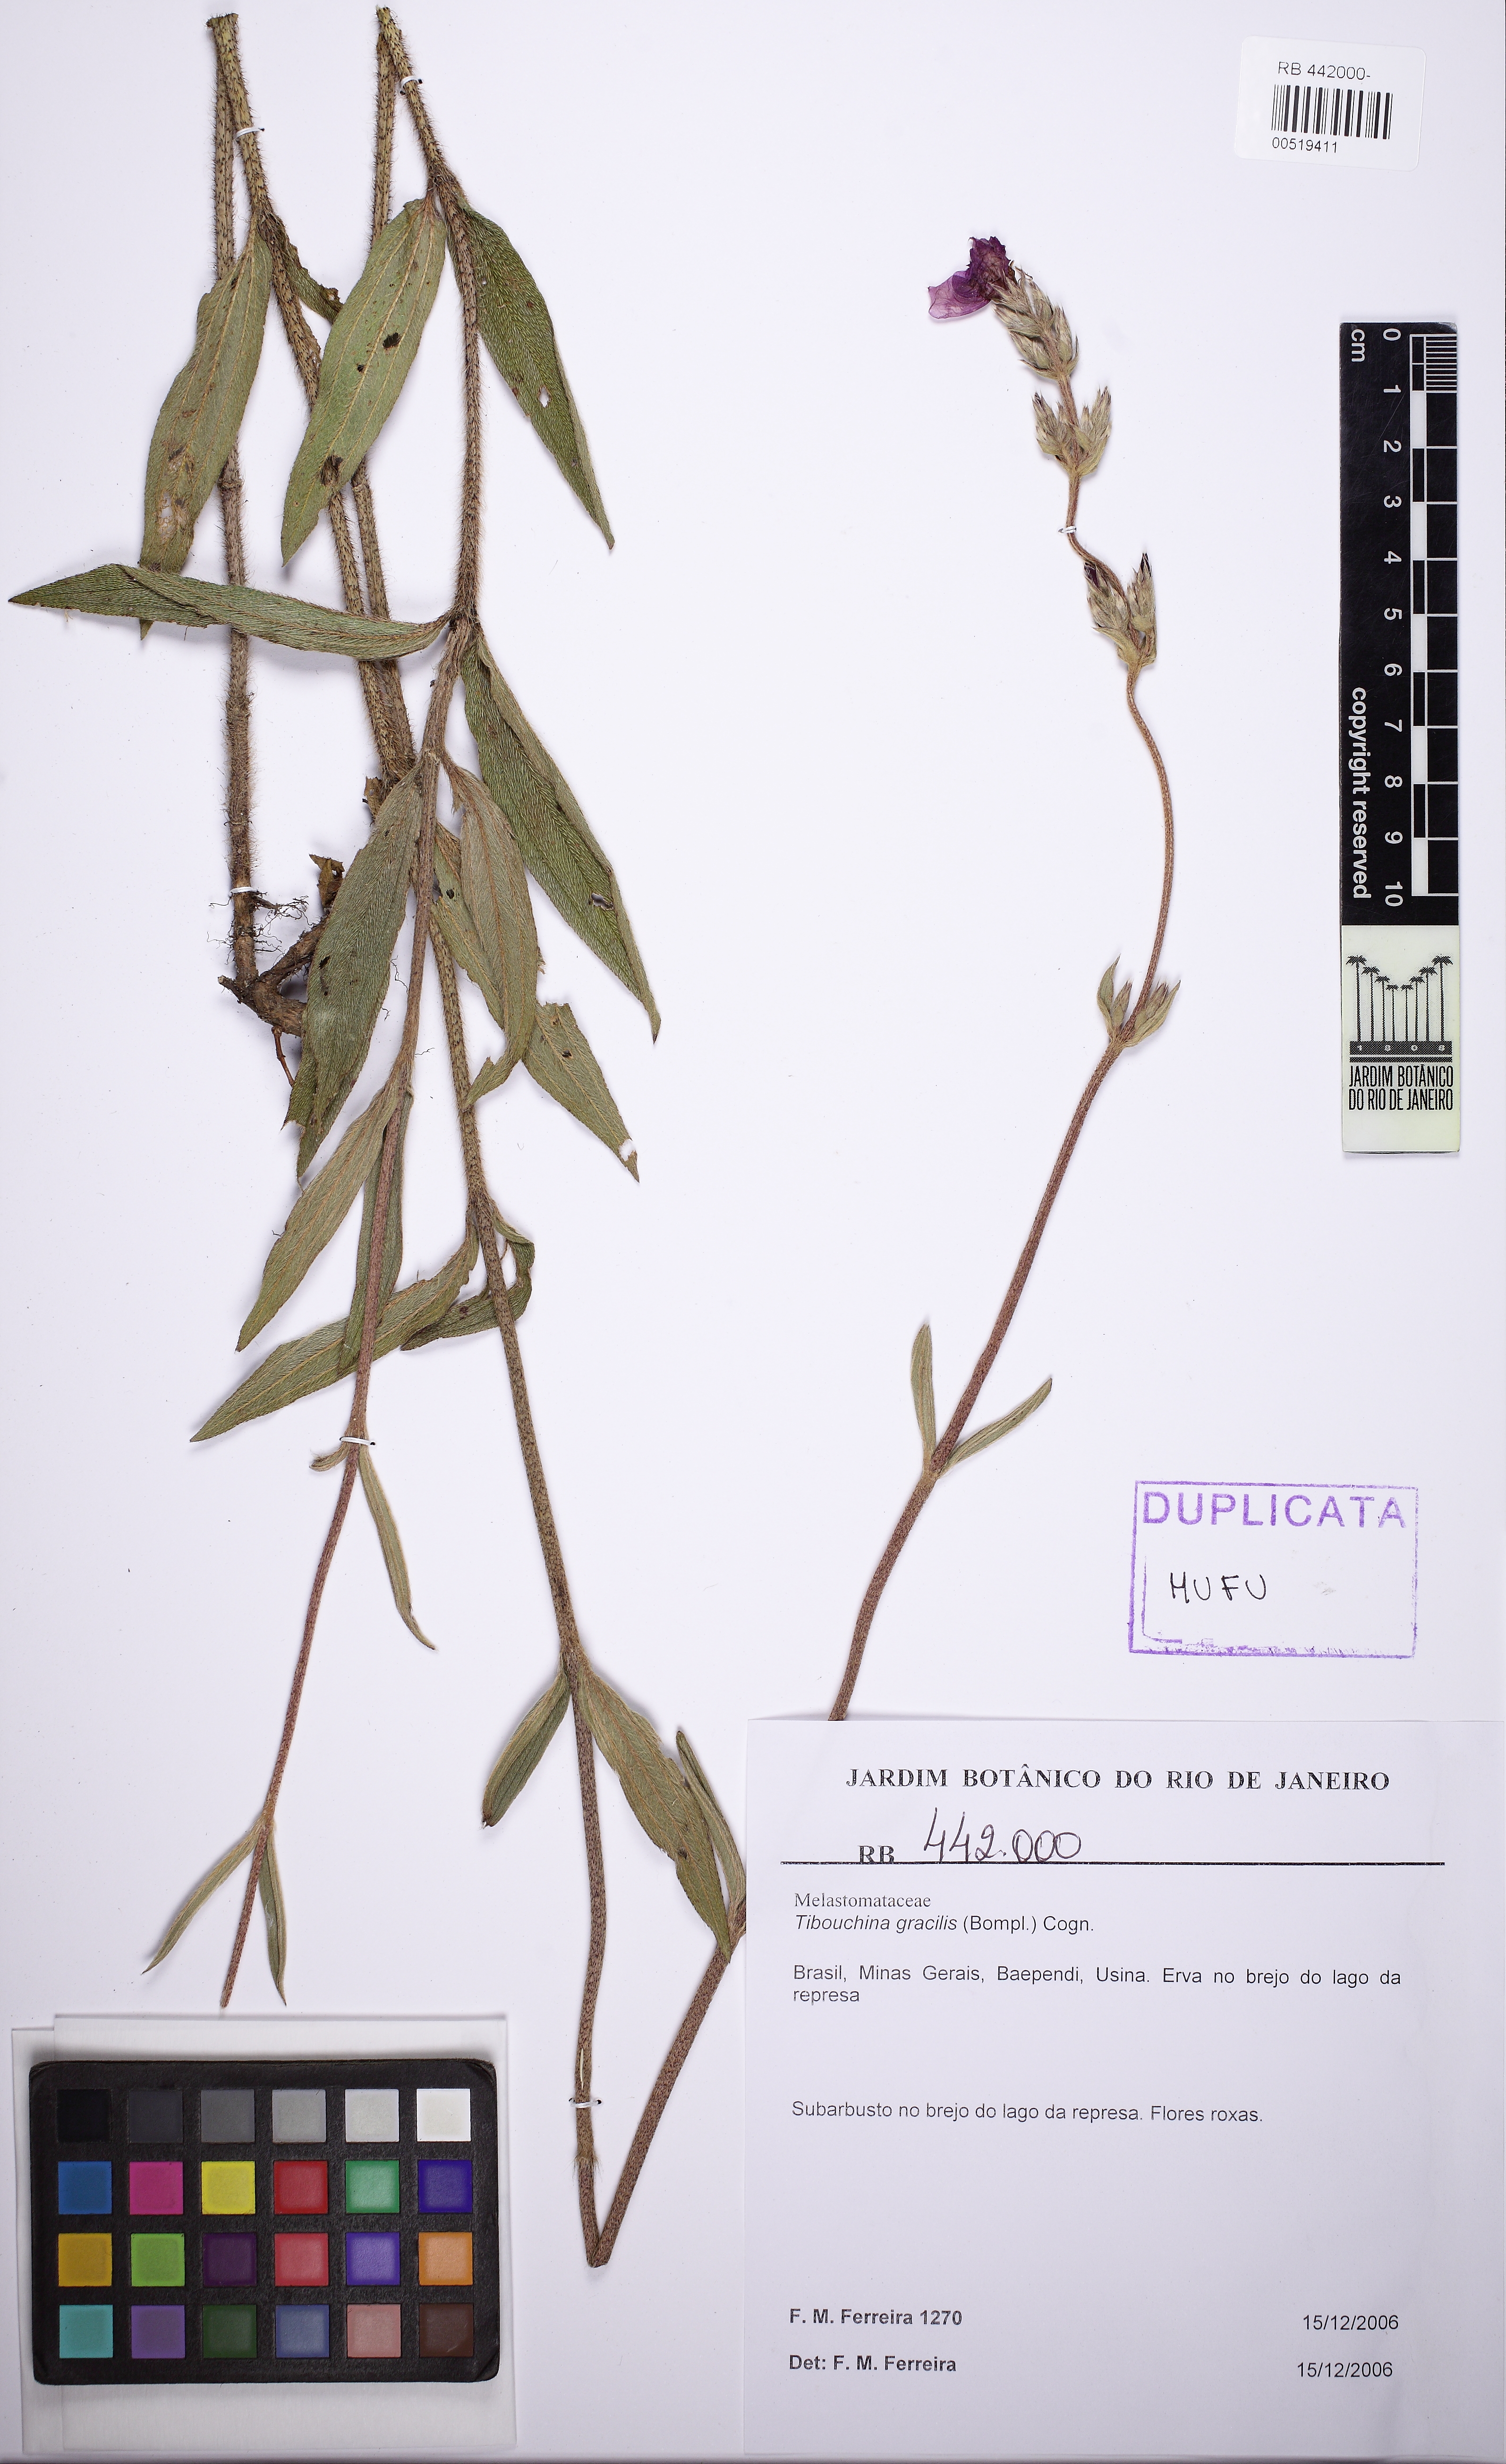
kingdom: Plantae
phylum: Tracheophyta
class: Magnoliopsida
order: Myrtales
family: Melastomataceae
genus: Chaetogastra
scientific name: Chaetogastra gracilis
